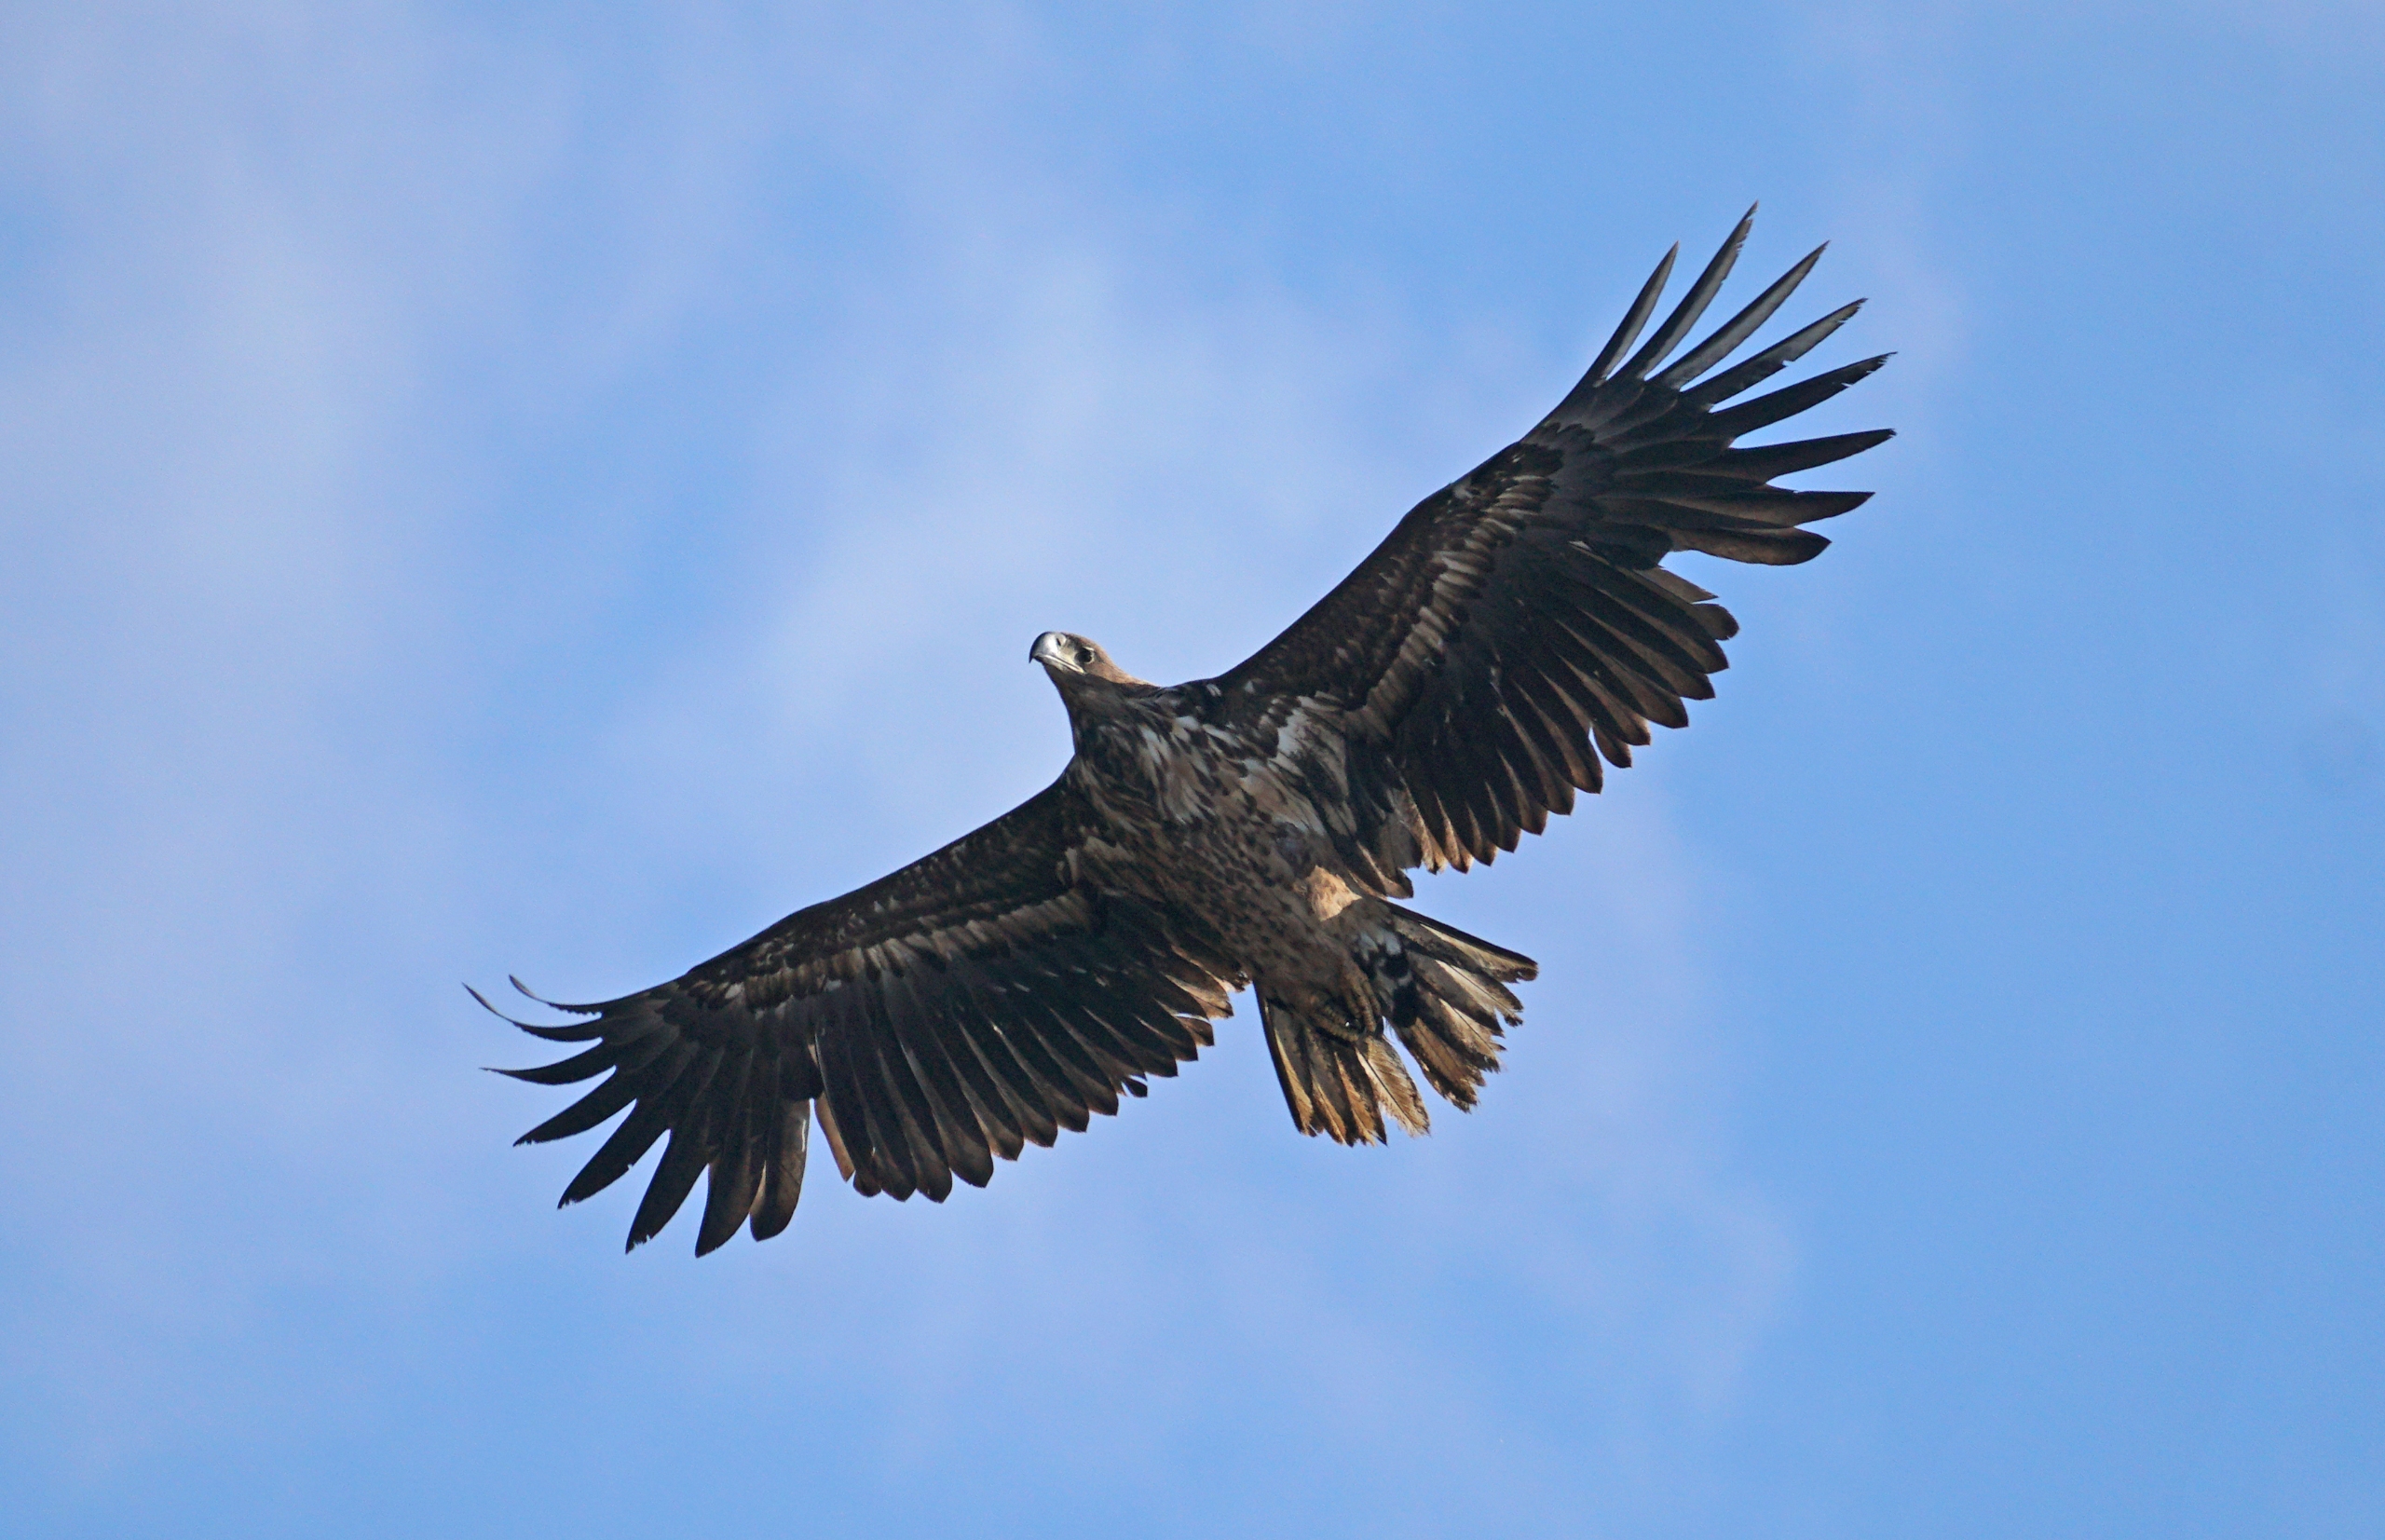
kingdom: Animalia
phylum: Chordata
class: Aves
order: Accipitriformes
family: Accipitridae
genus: Haliaeetus
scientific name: Haliaeetus albicilla
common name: Havørn
